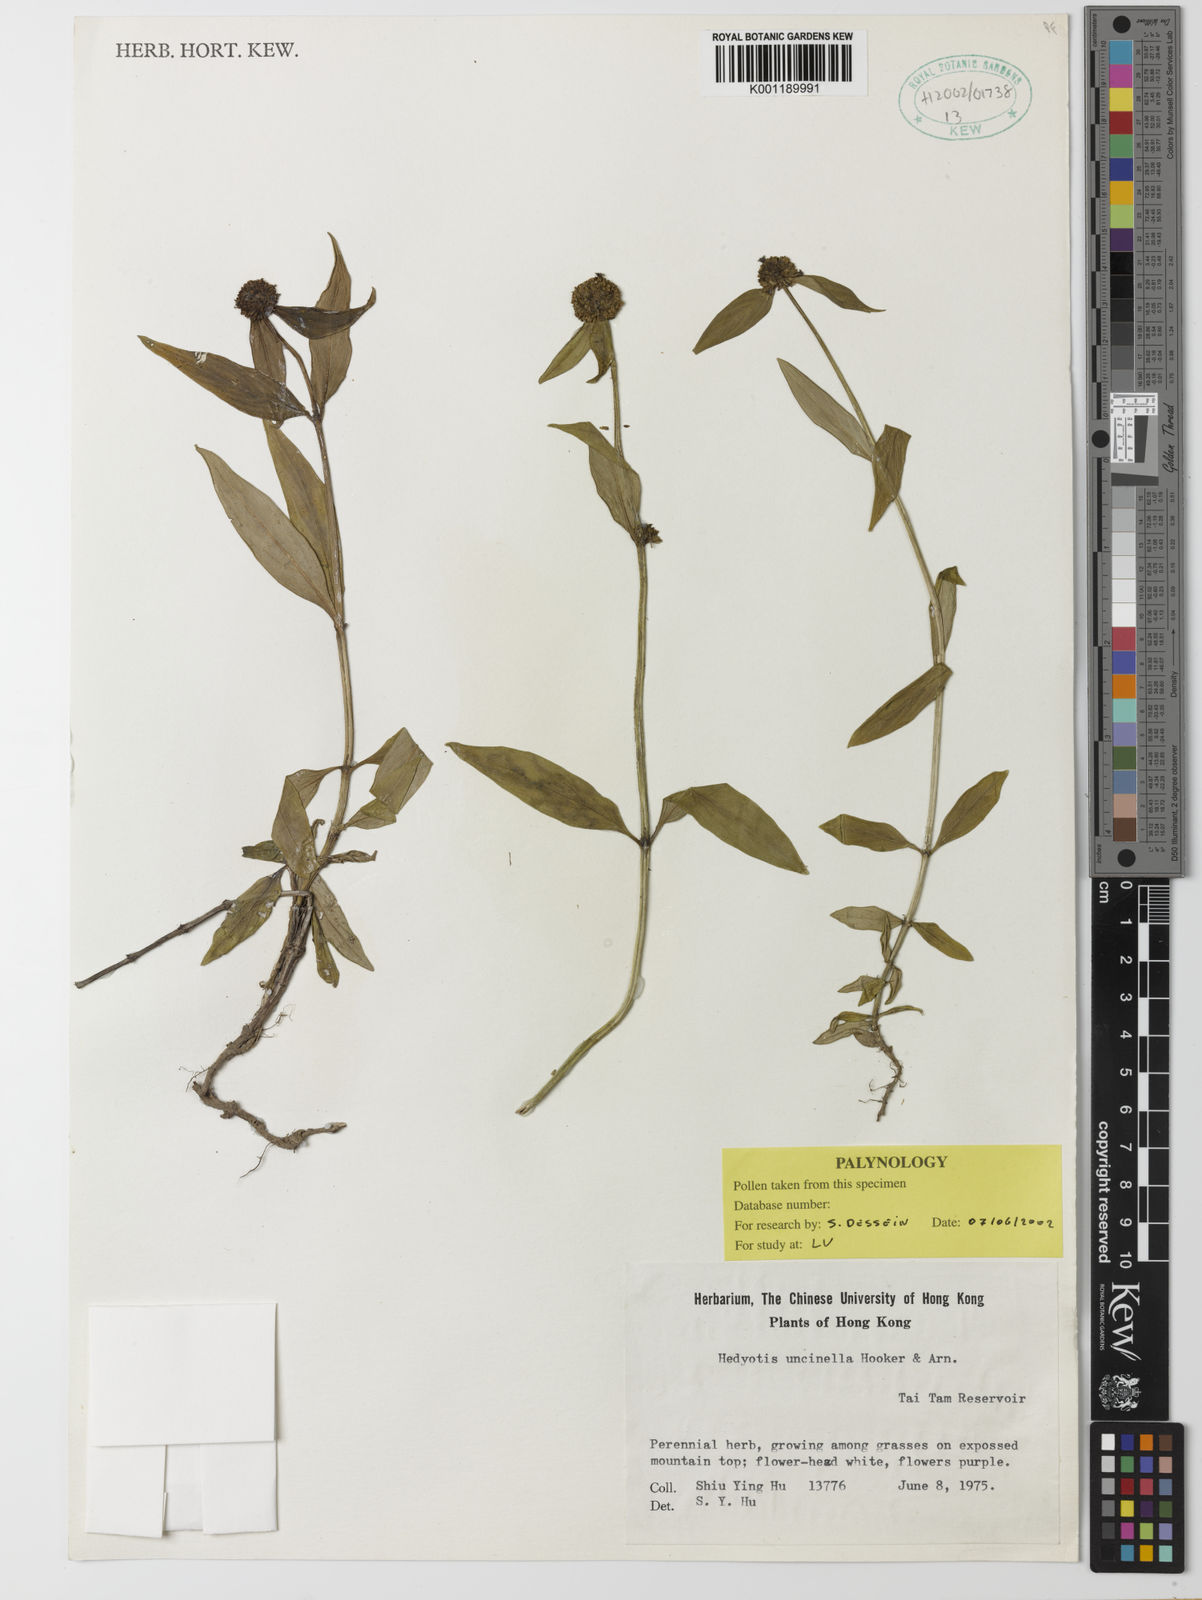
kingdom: Plantae
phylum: Tracheophyta
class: Magnoliopsida
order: Gentianales
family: Rubiaceae
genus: Hedyotis
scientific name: Hedyotis uncinella
